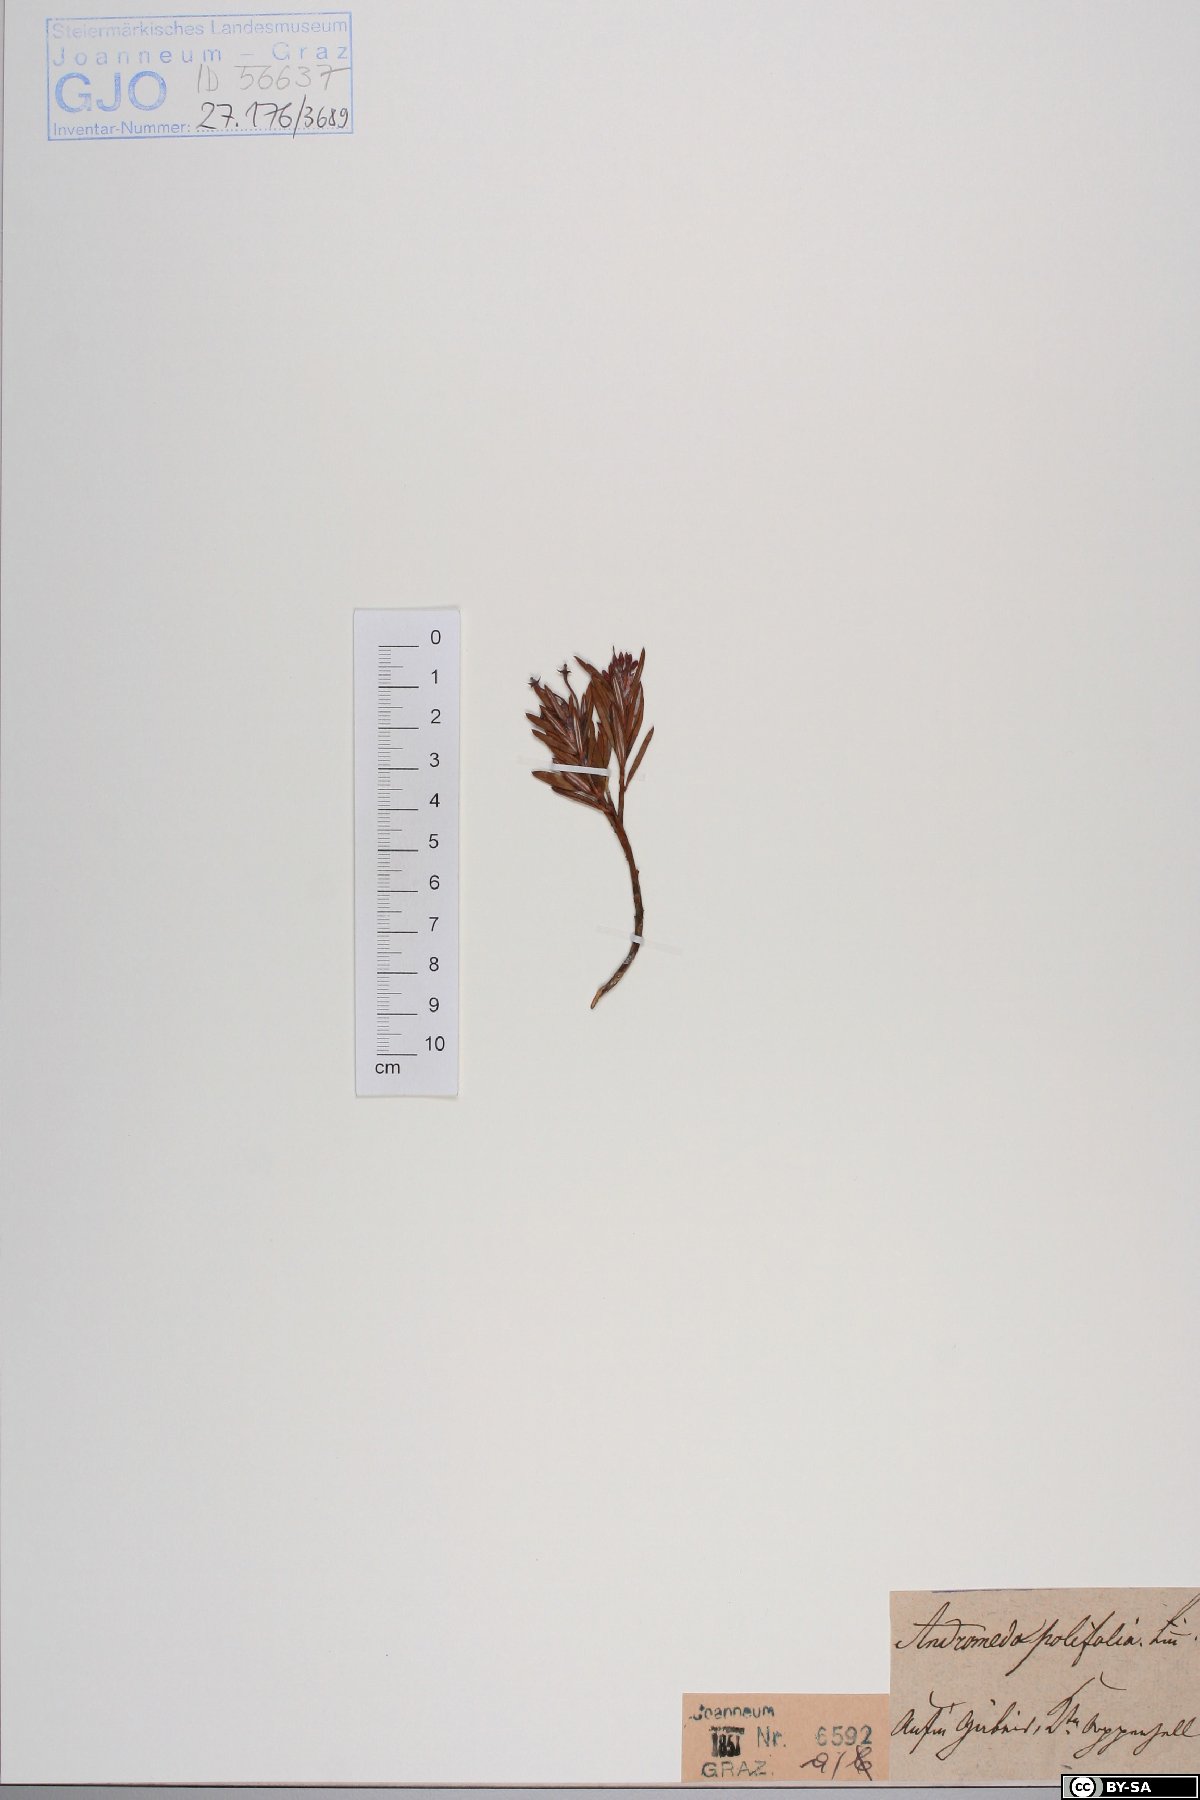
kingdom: Plantae
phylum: Tracheophyta
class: Magnoliopsida
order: Ericales
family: Ericaceae
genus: Andromeda
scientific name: Andromeda polifolia
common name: Bog-rosemary
